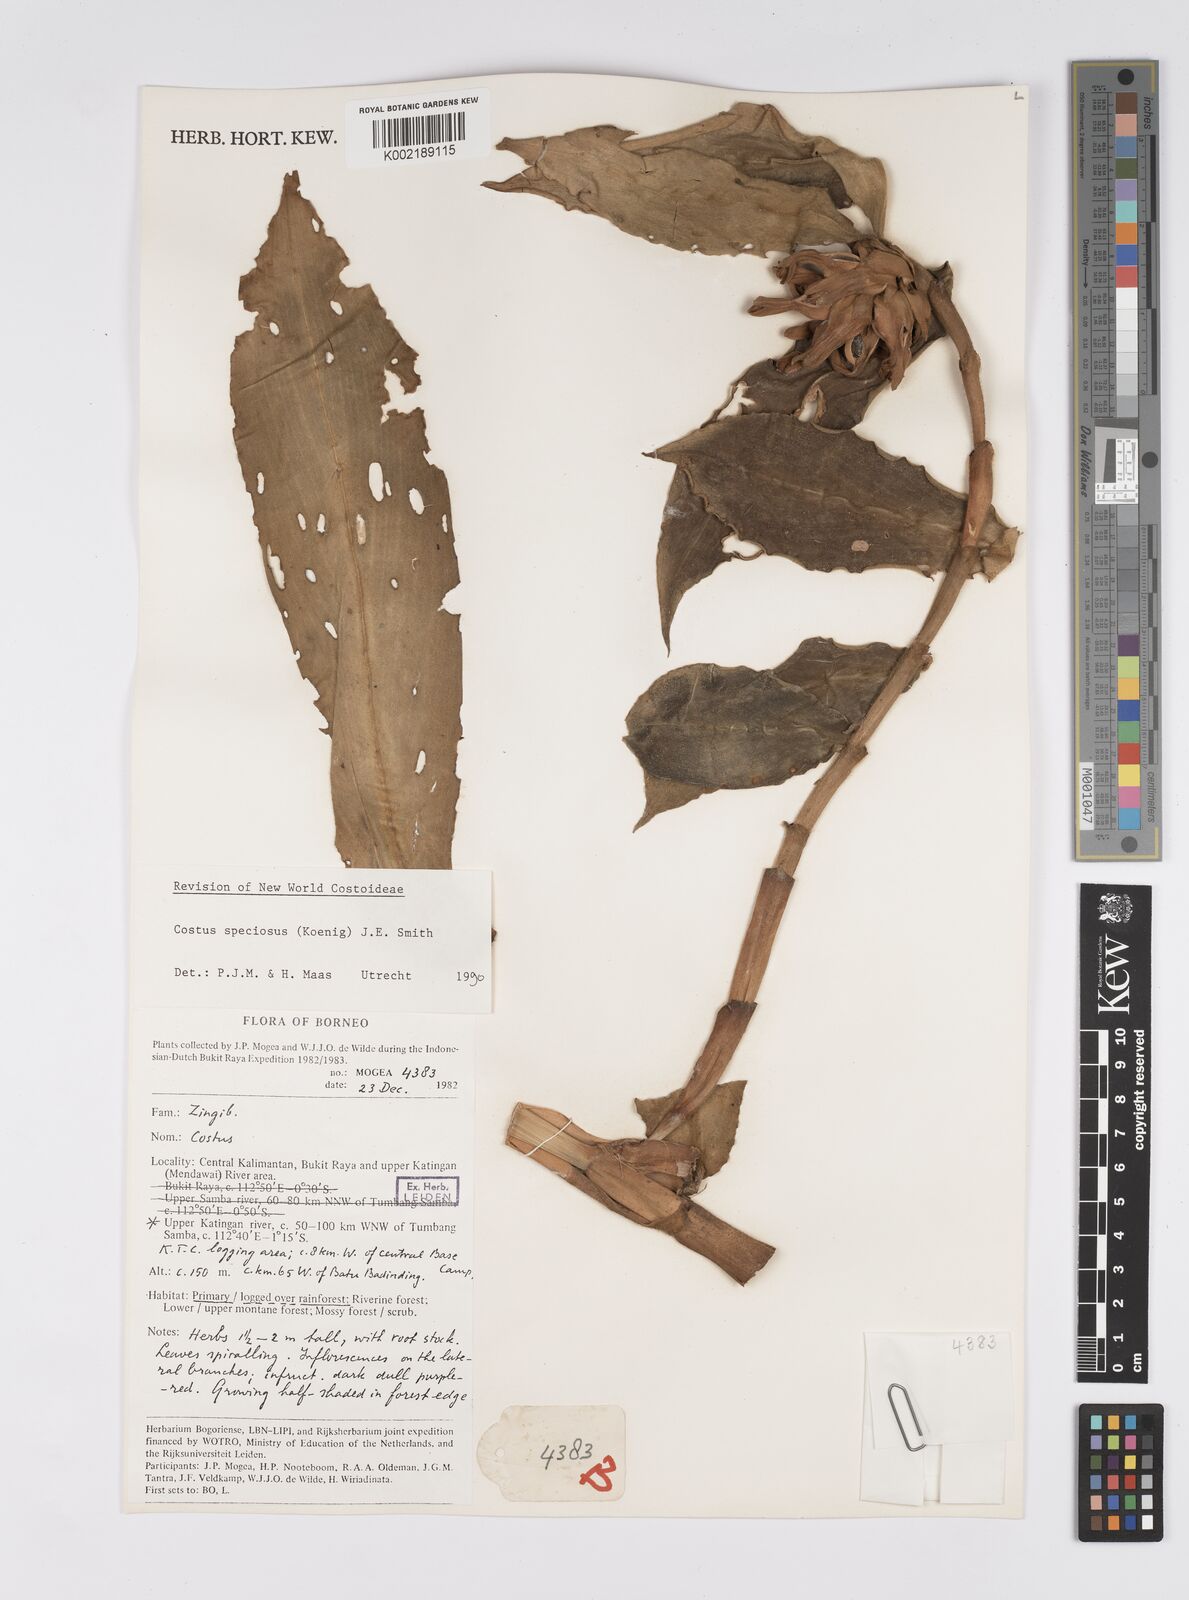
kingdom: Plantae
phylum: Tracheophyta
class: Liliopsida
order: Zingiberales
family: Costaceae
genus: Hellenia
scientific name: Hellenia speciosa
